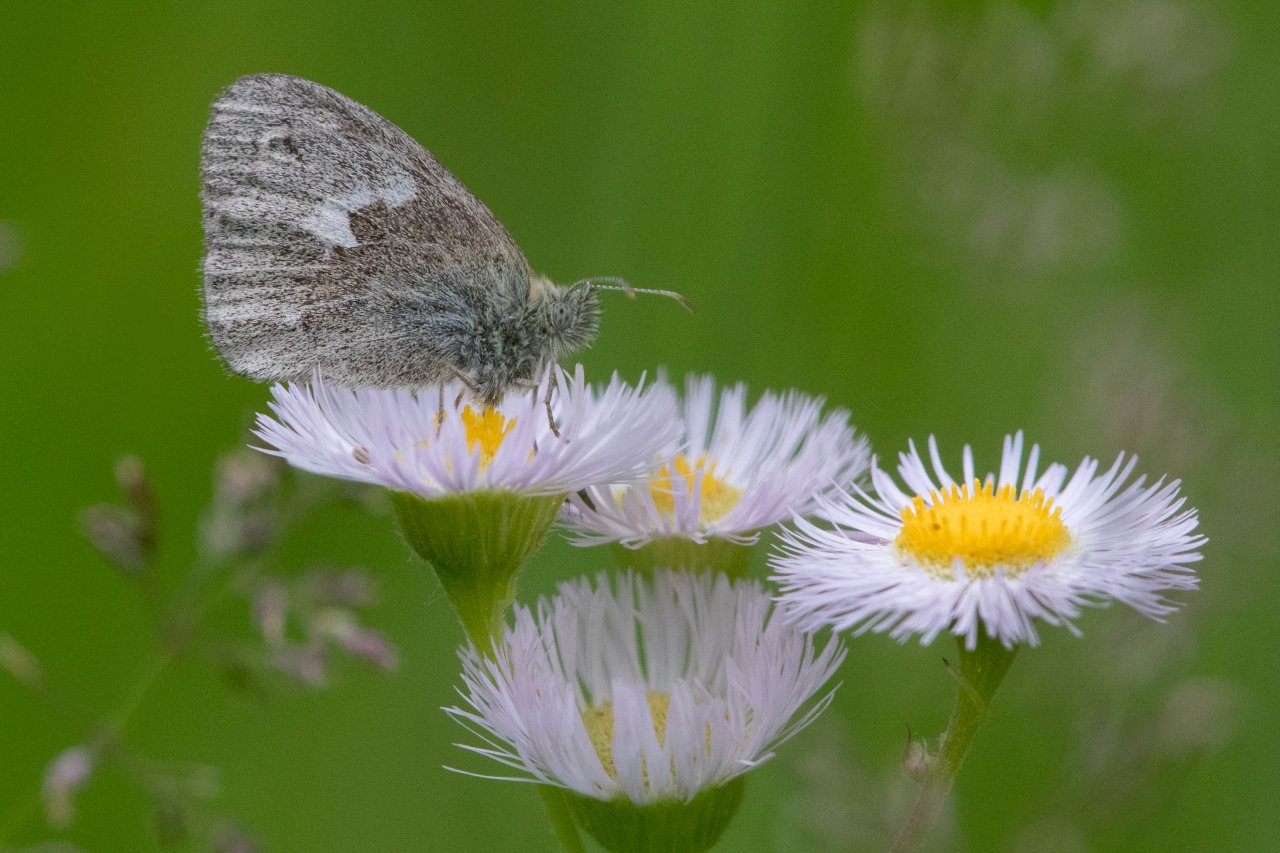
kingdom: Animalia
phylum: Arthropoda
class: Insecta
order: Lepidoptera
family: Nymphalidae
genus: Coenonympha
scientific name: Coenonympha tullia
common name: Large Heath
